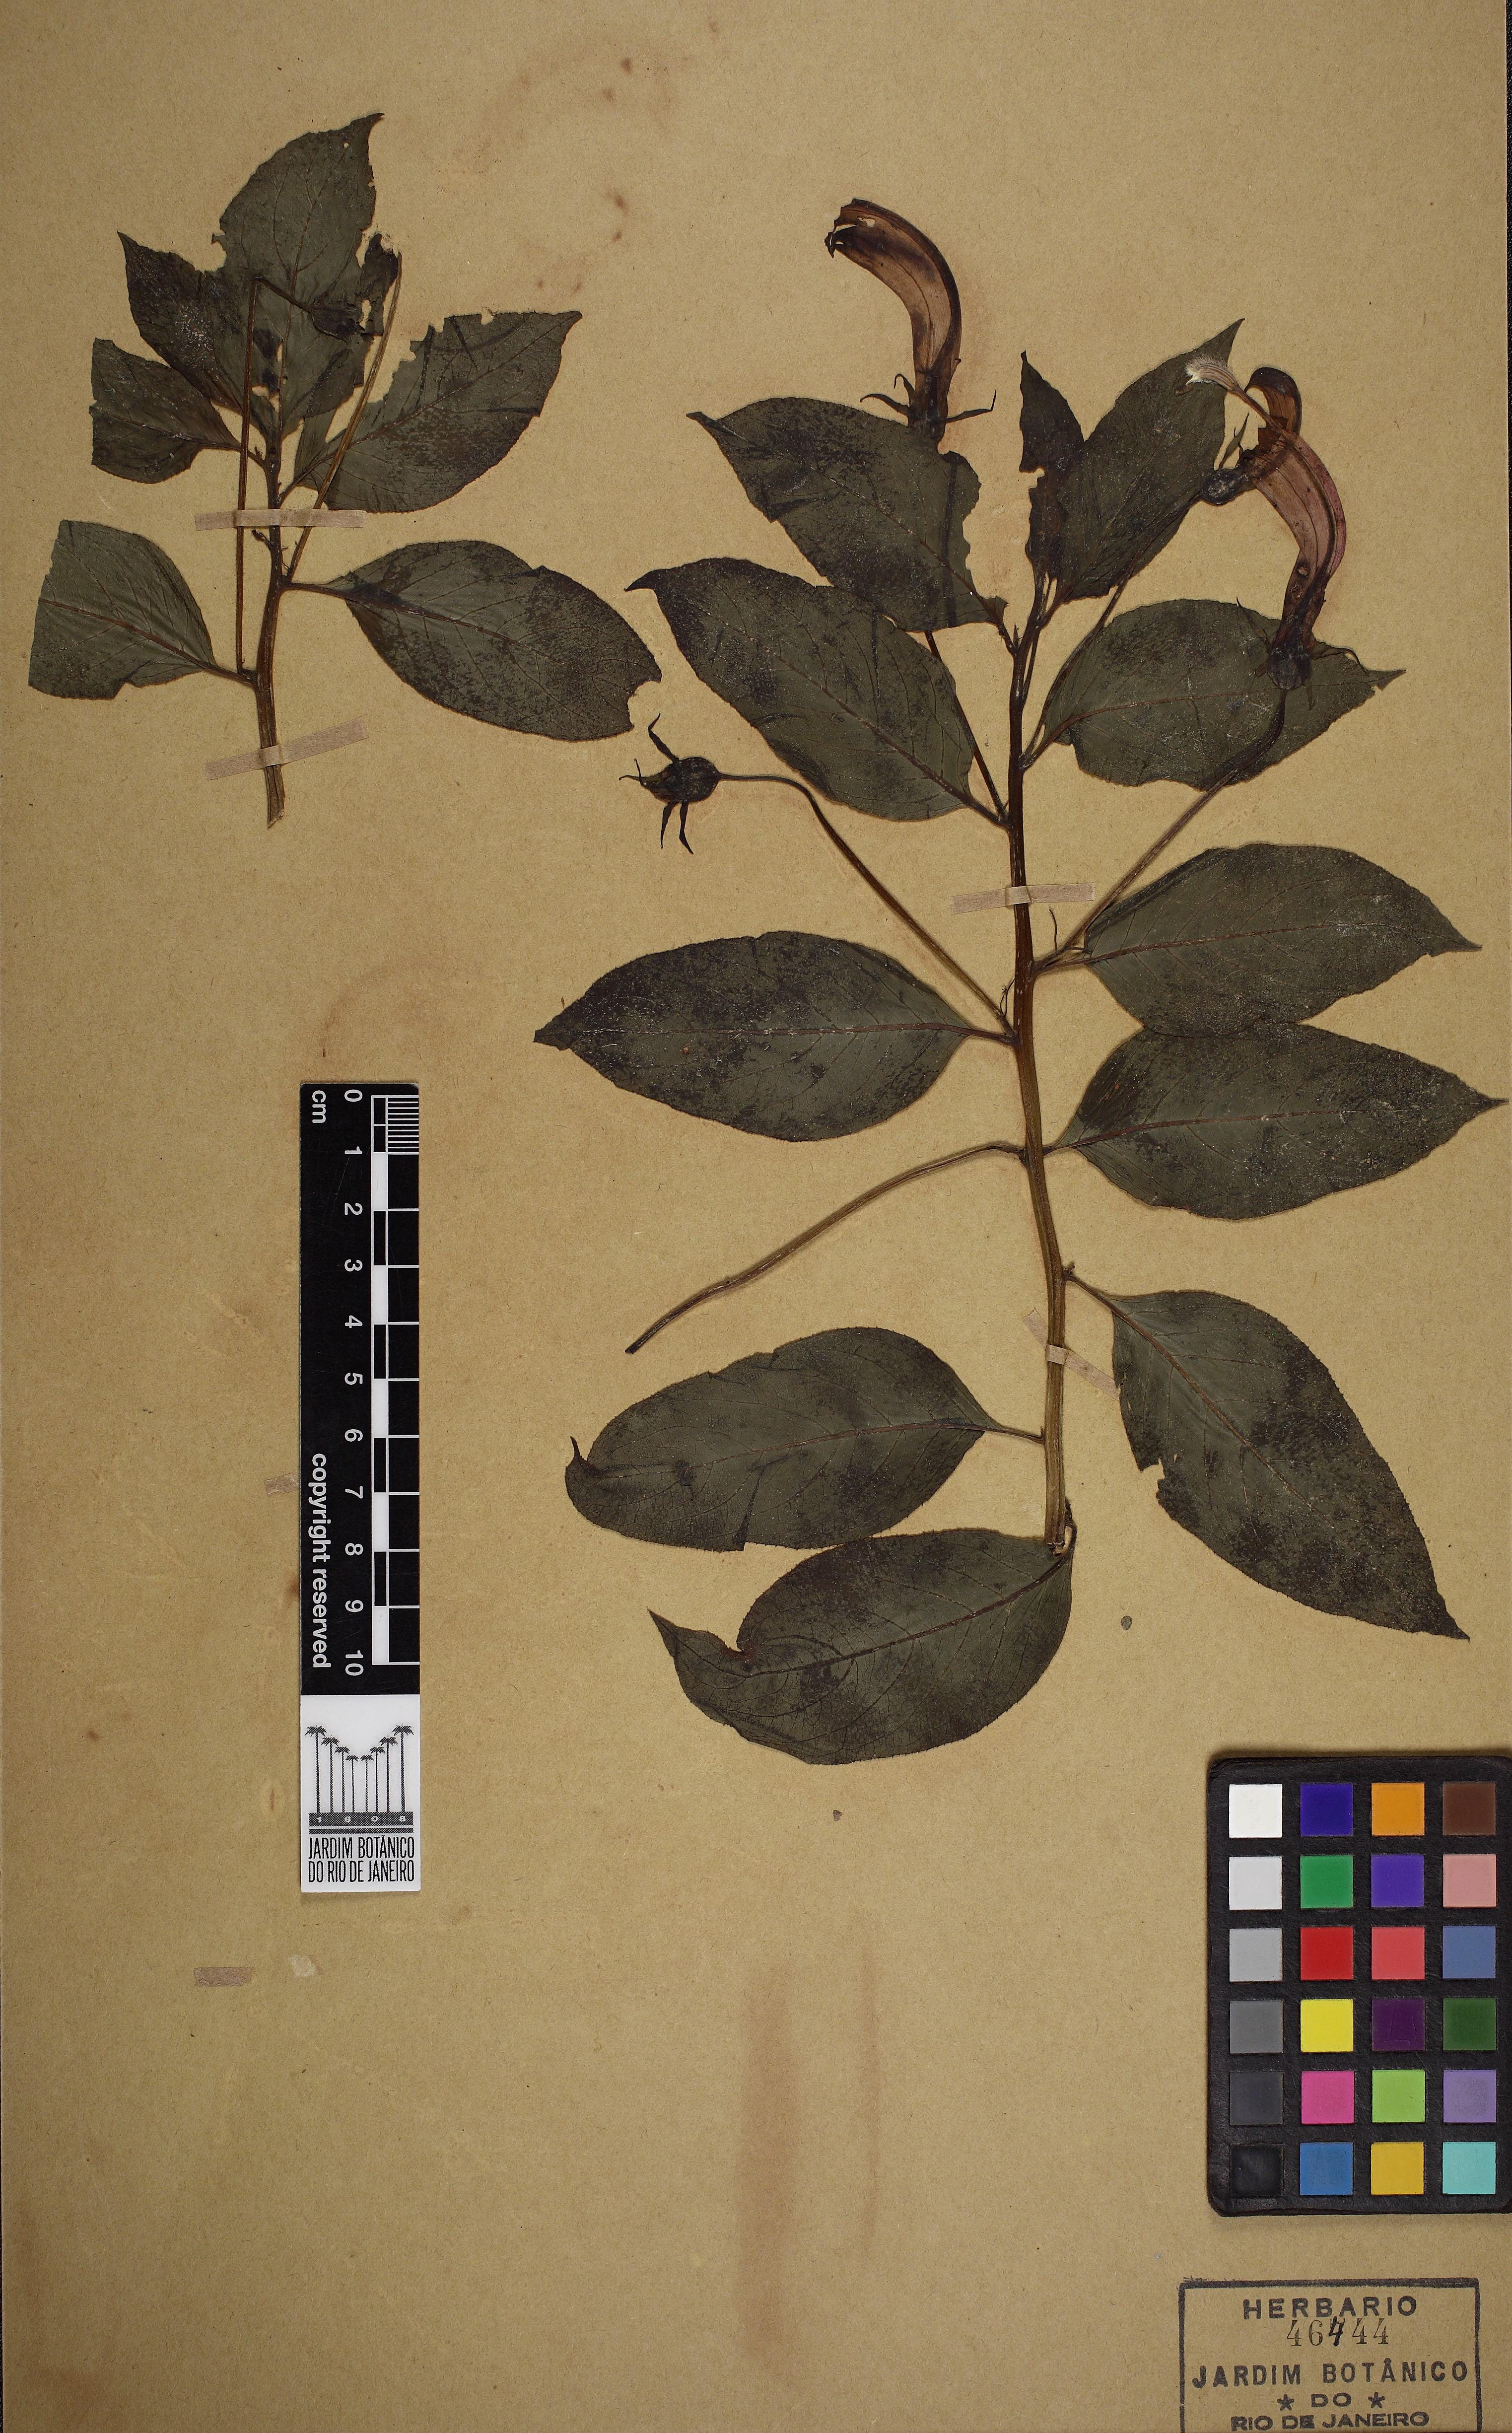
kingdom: Plantae
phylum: Tracheophyta
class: Magnoliopsida
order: Asterales
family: Campanulaceae
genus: Centropogon
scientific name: Centropogon cornutus
